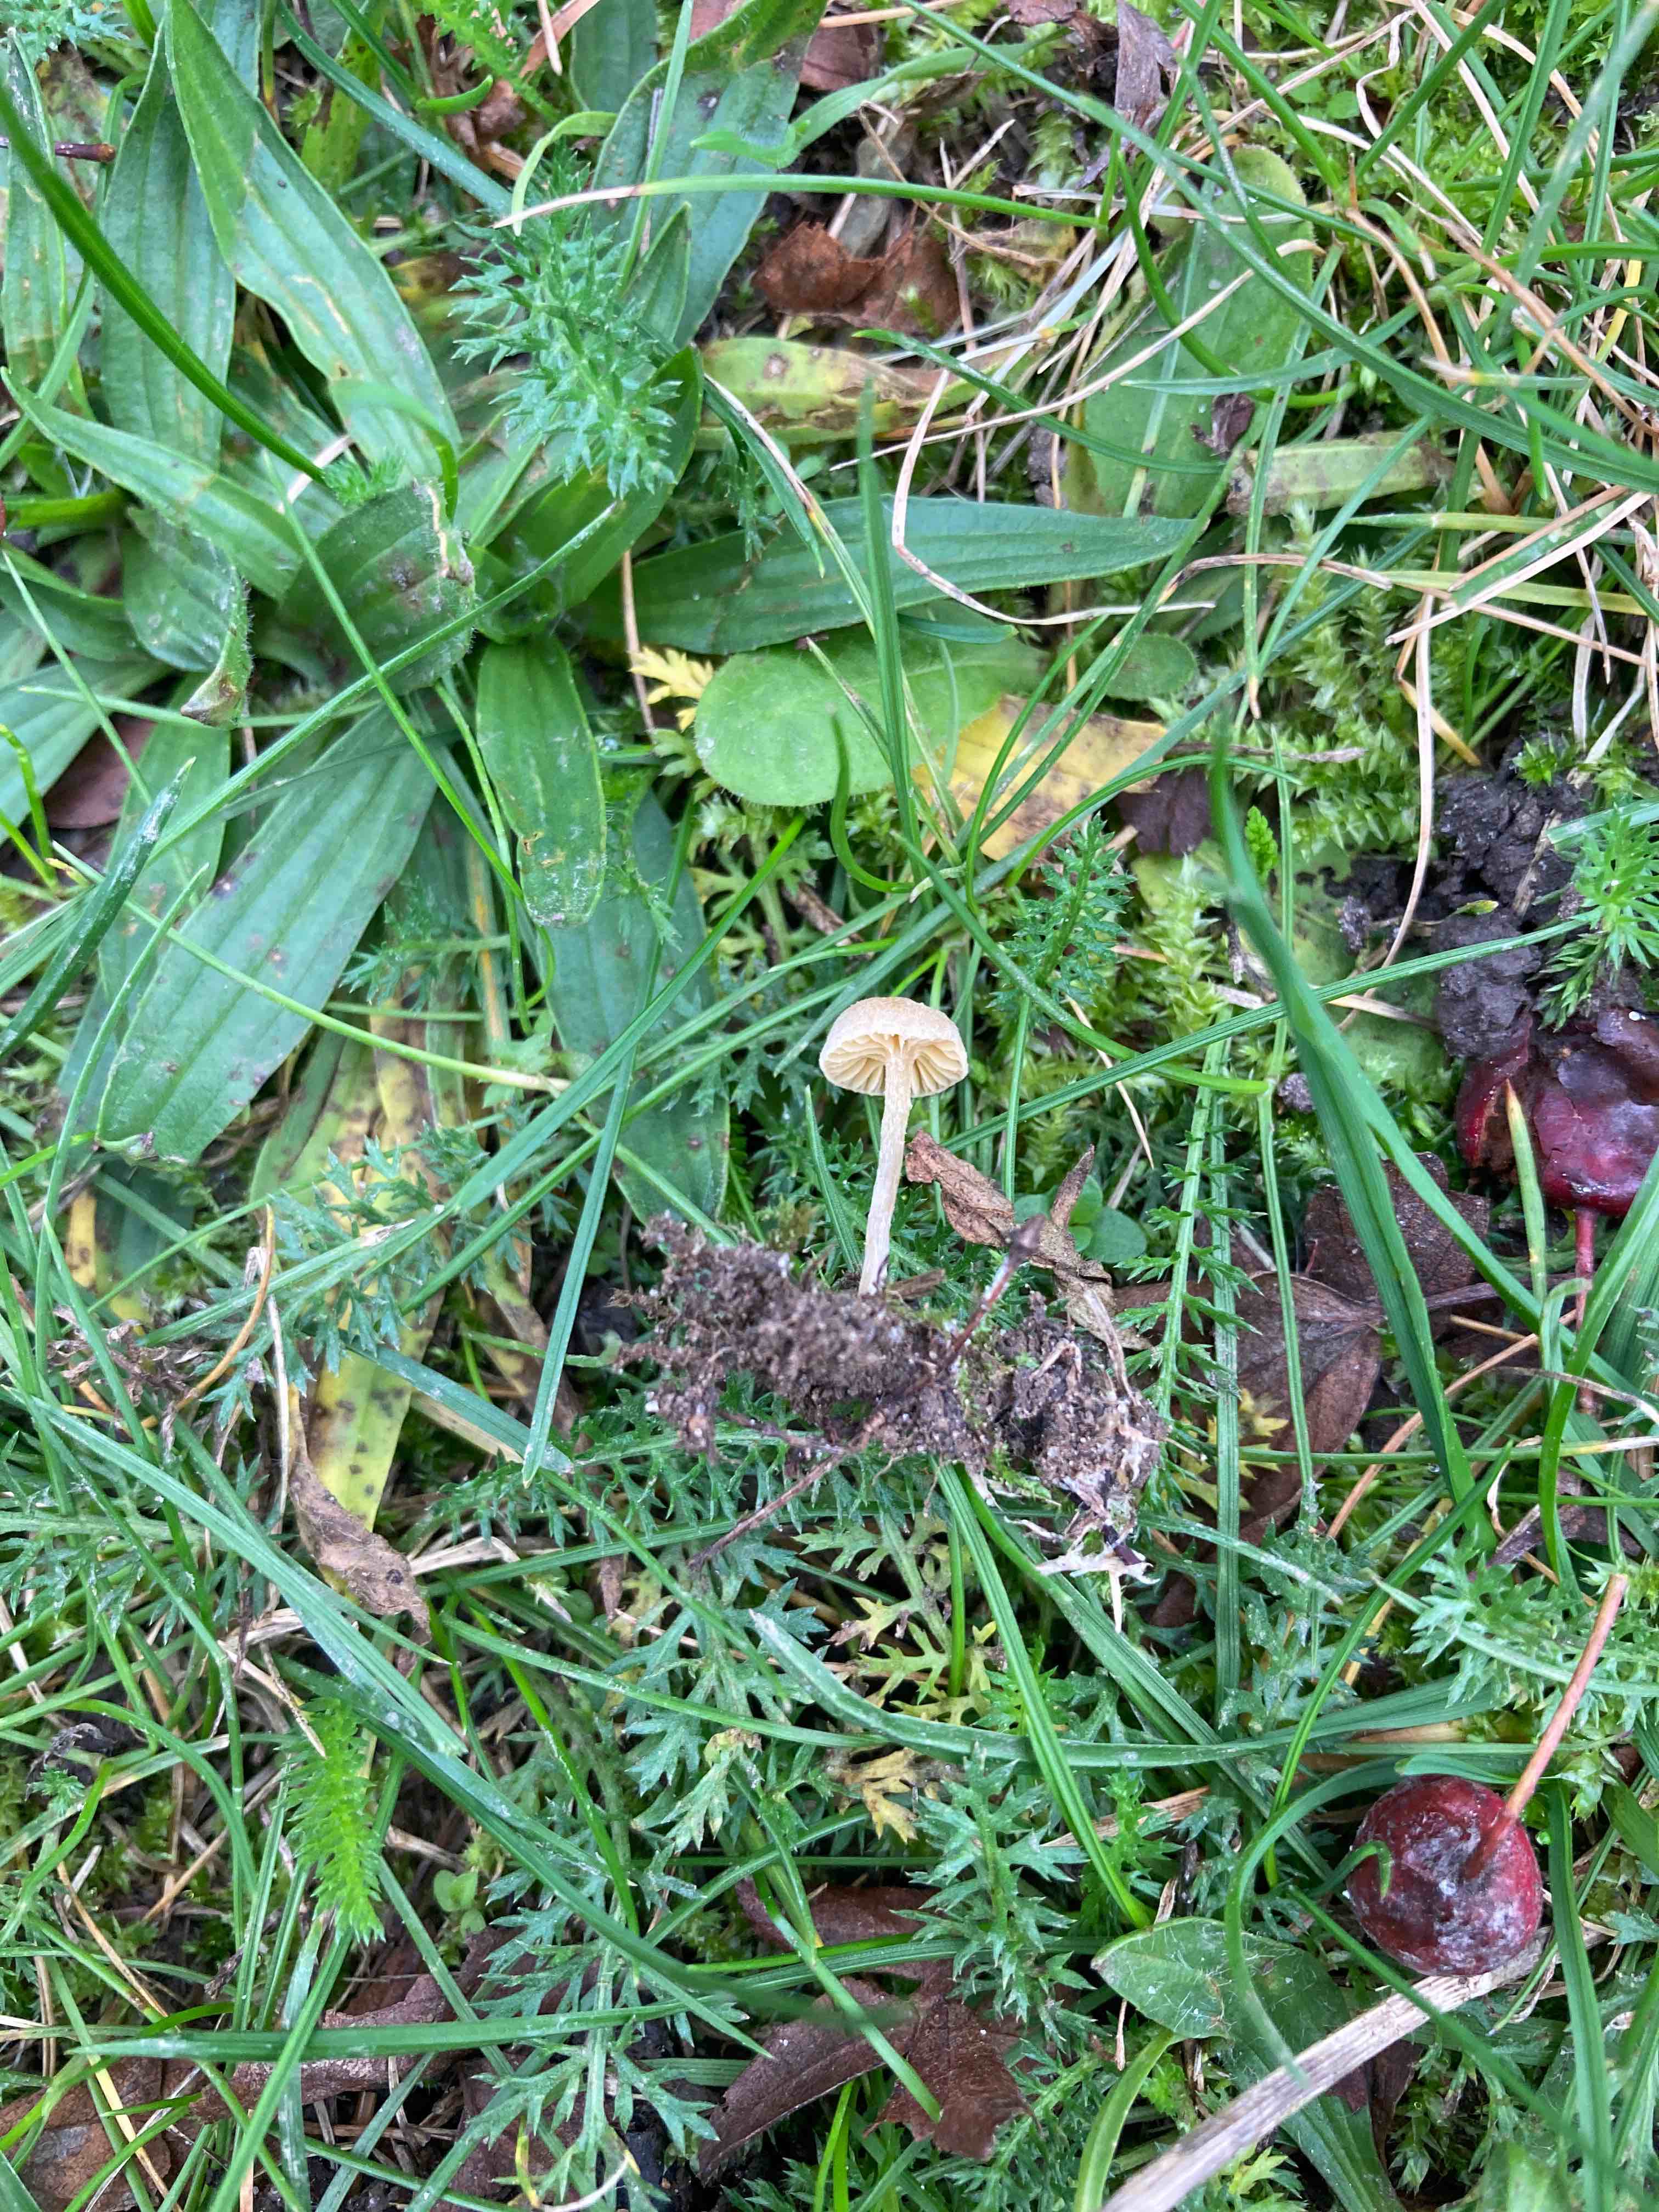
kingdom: Fungi
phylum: Basidiomycota
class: Agaricomycetes
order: Agaricales
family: Tubariaceae
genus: Tubaria
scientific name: Tubaria dispersa
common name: tjørne-fnughat
